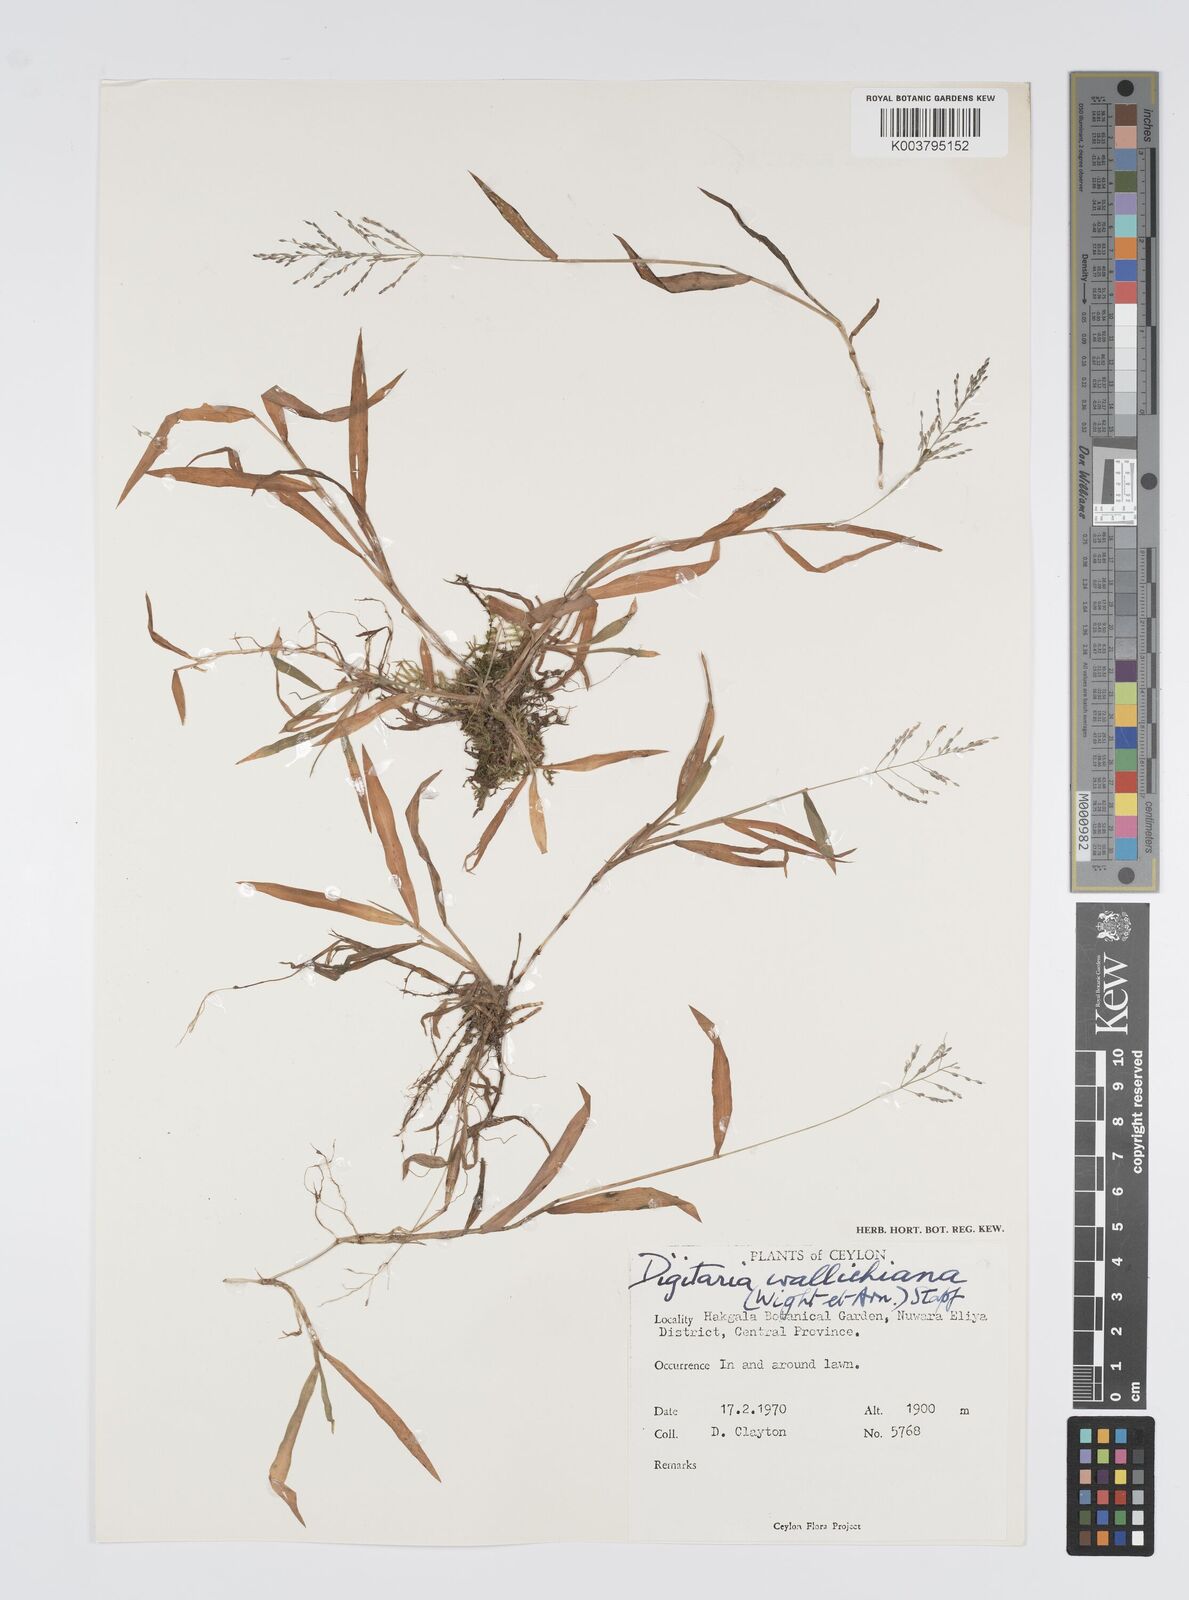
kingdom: Plantae
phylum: Tracheophyta
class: Liliopsida
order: Poales
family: Poaceae
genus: Digitaria
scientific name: Digitaria wallichiana
